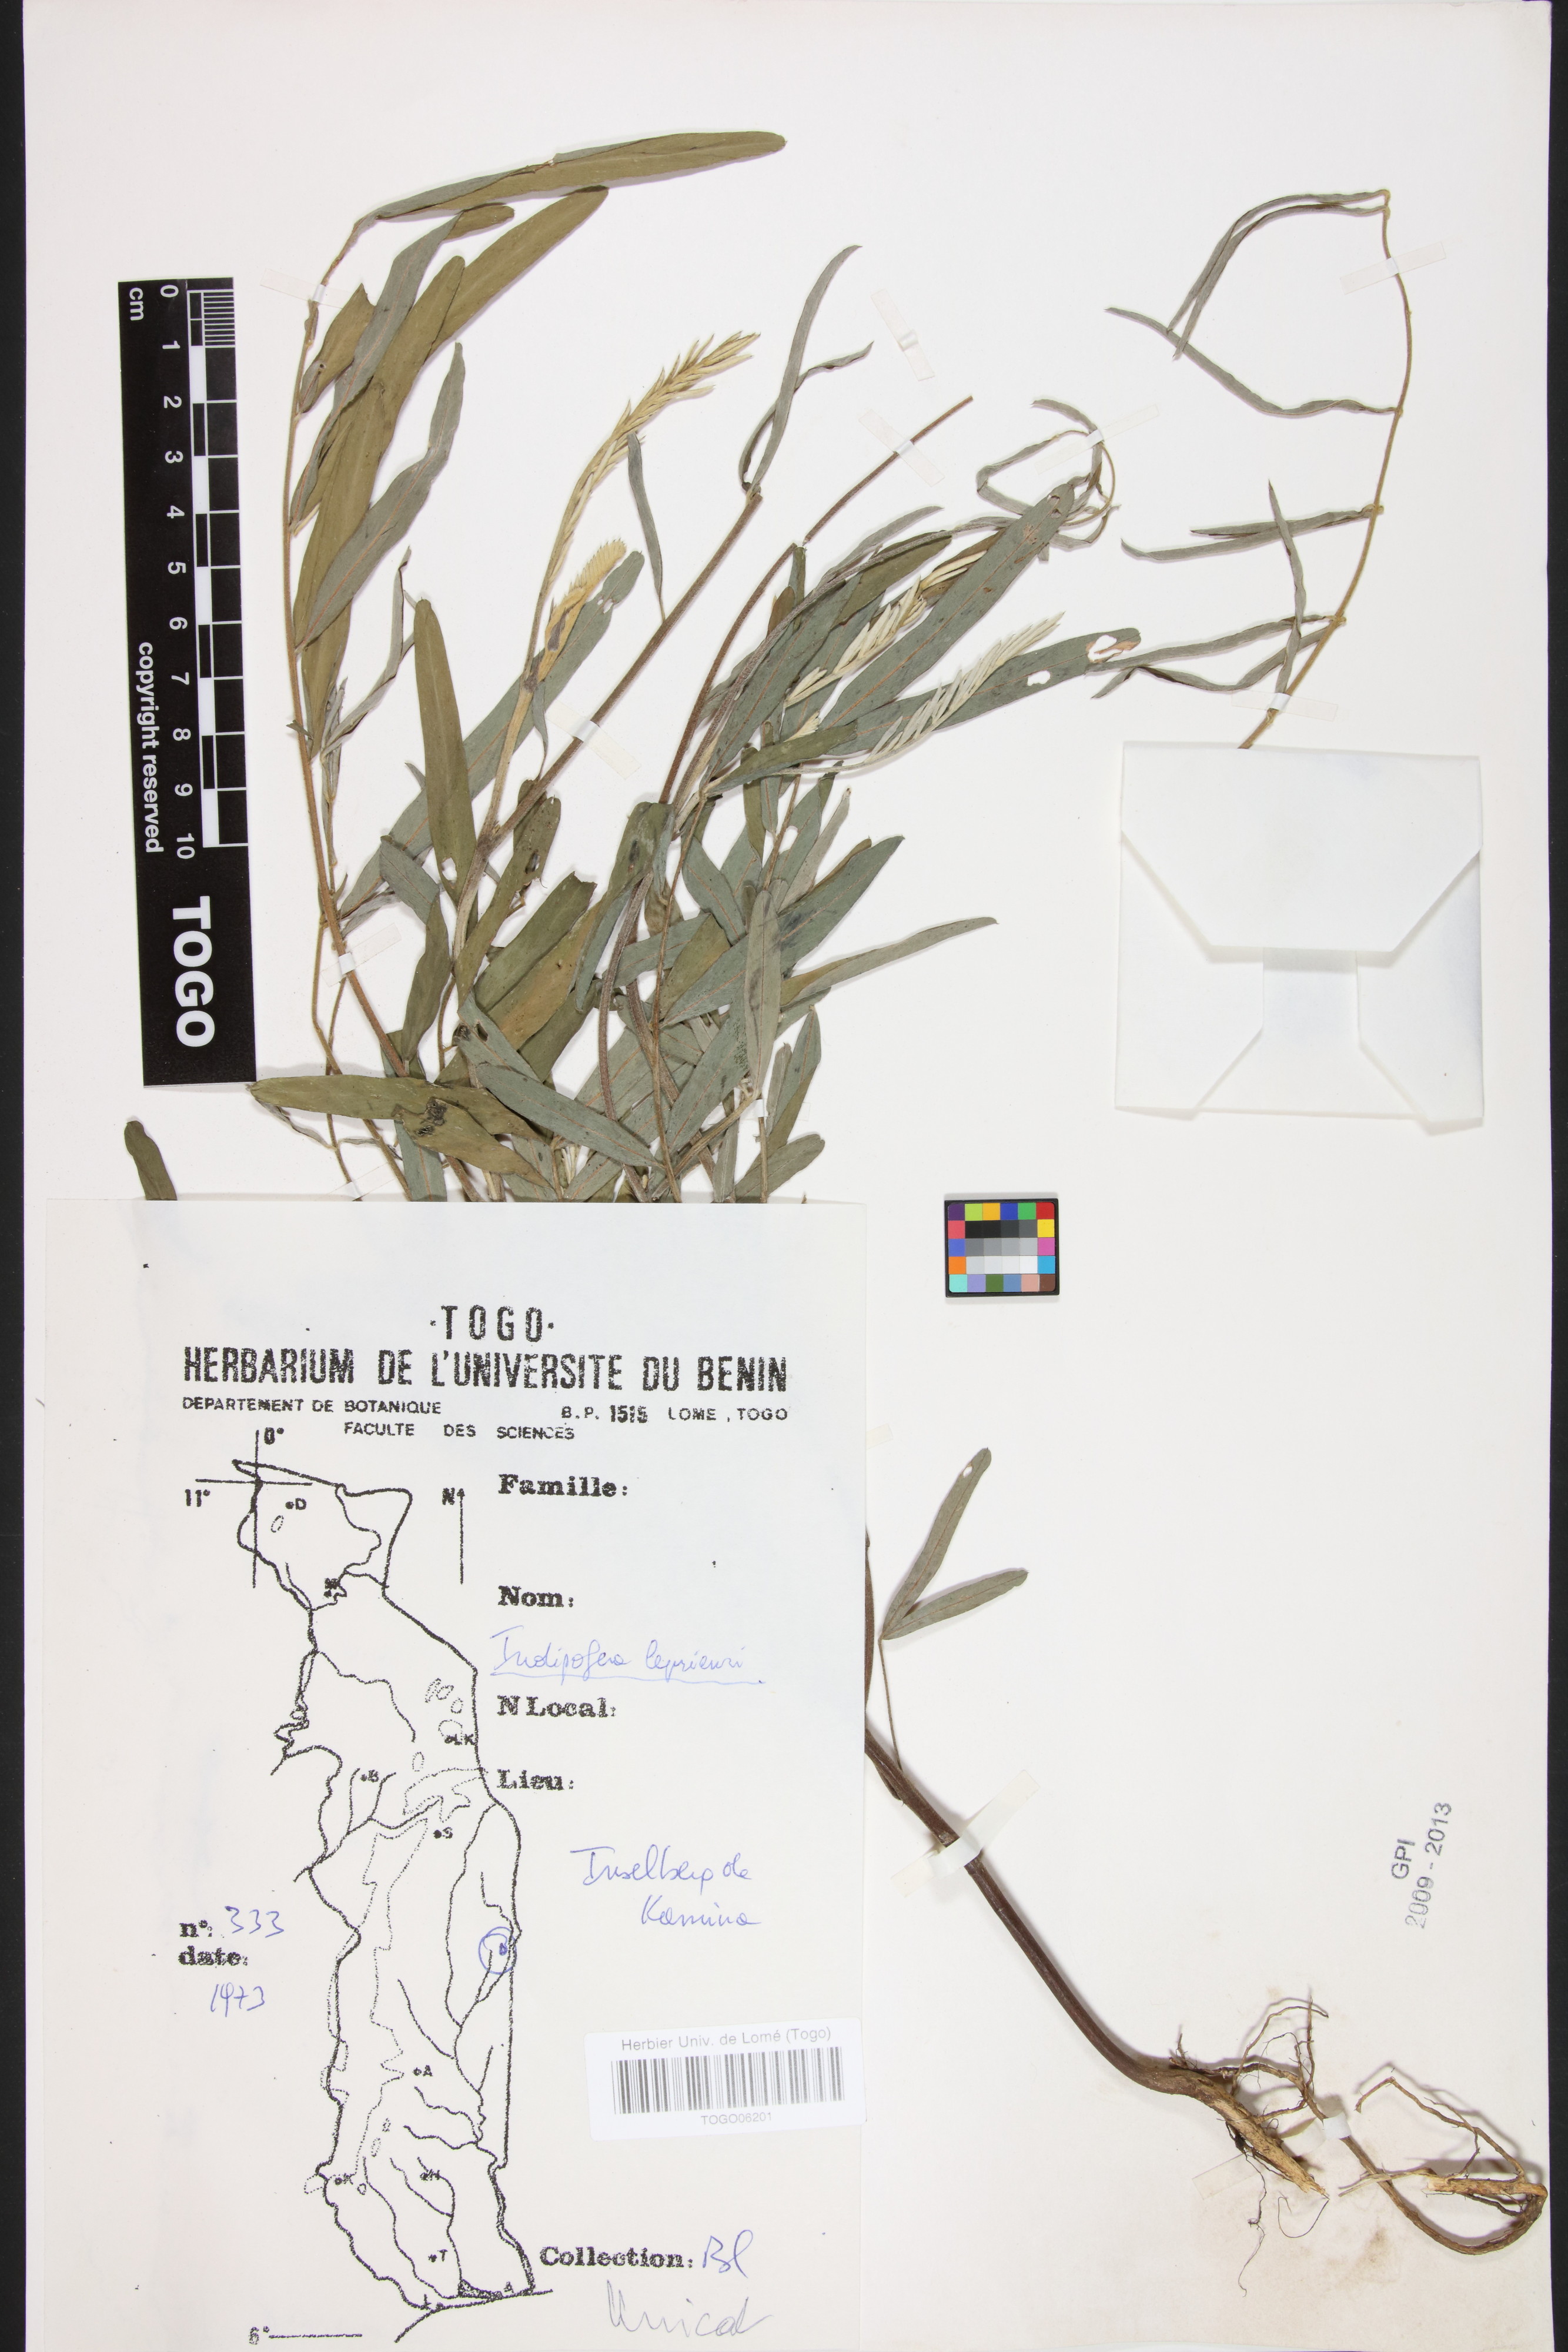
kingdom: Plantae
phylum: Tracheophyta
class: Magnoliopsida
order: Fabales
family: Fabaceae
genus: Indigofera
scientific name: Indigofera leprieurii
